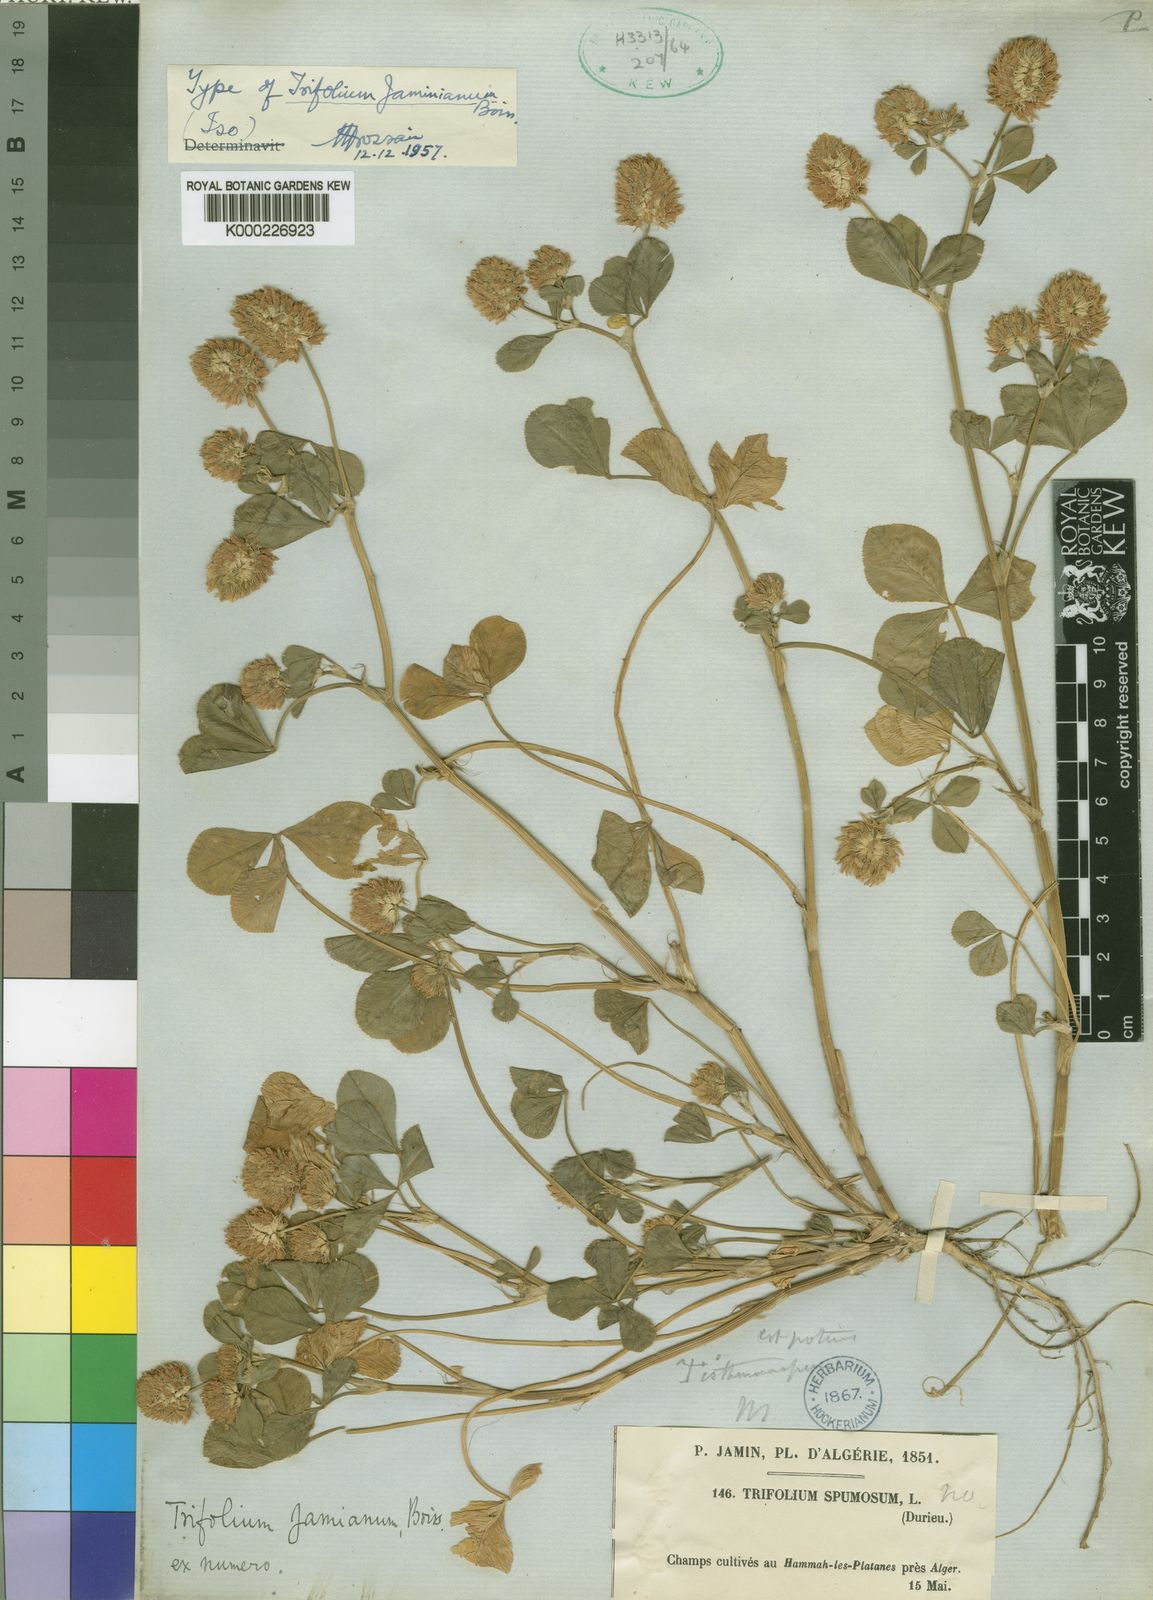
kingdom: Plantae
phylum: Tracheophyta
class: Magnoliopsida
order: Fabales
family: Fabaceae
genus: Trifolium
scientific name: Trifolium isthmocarpum
